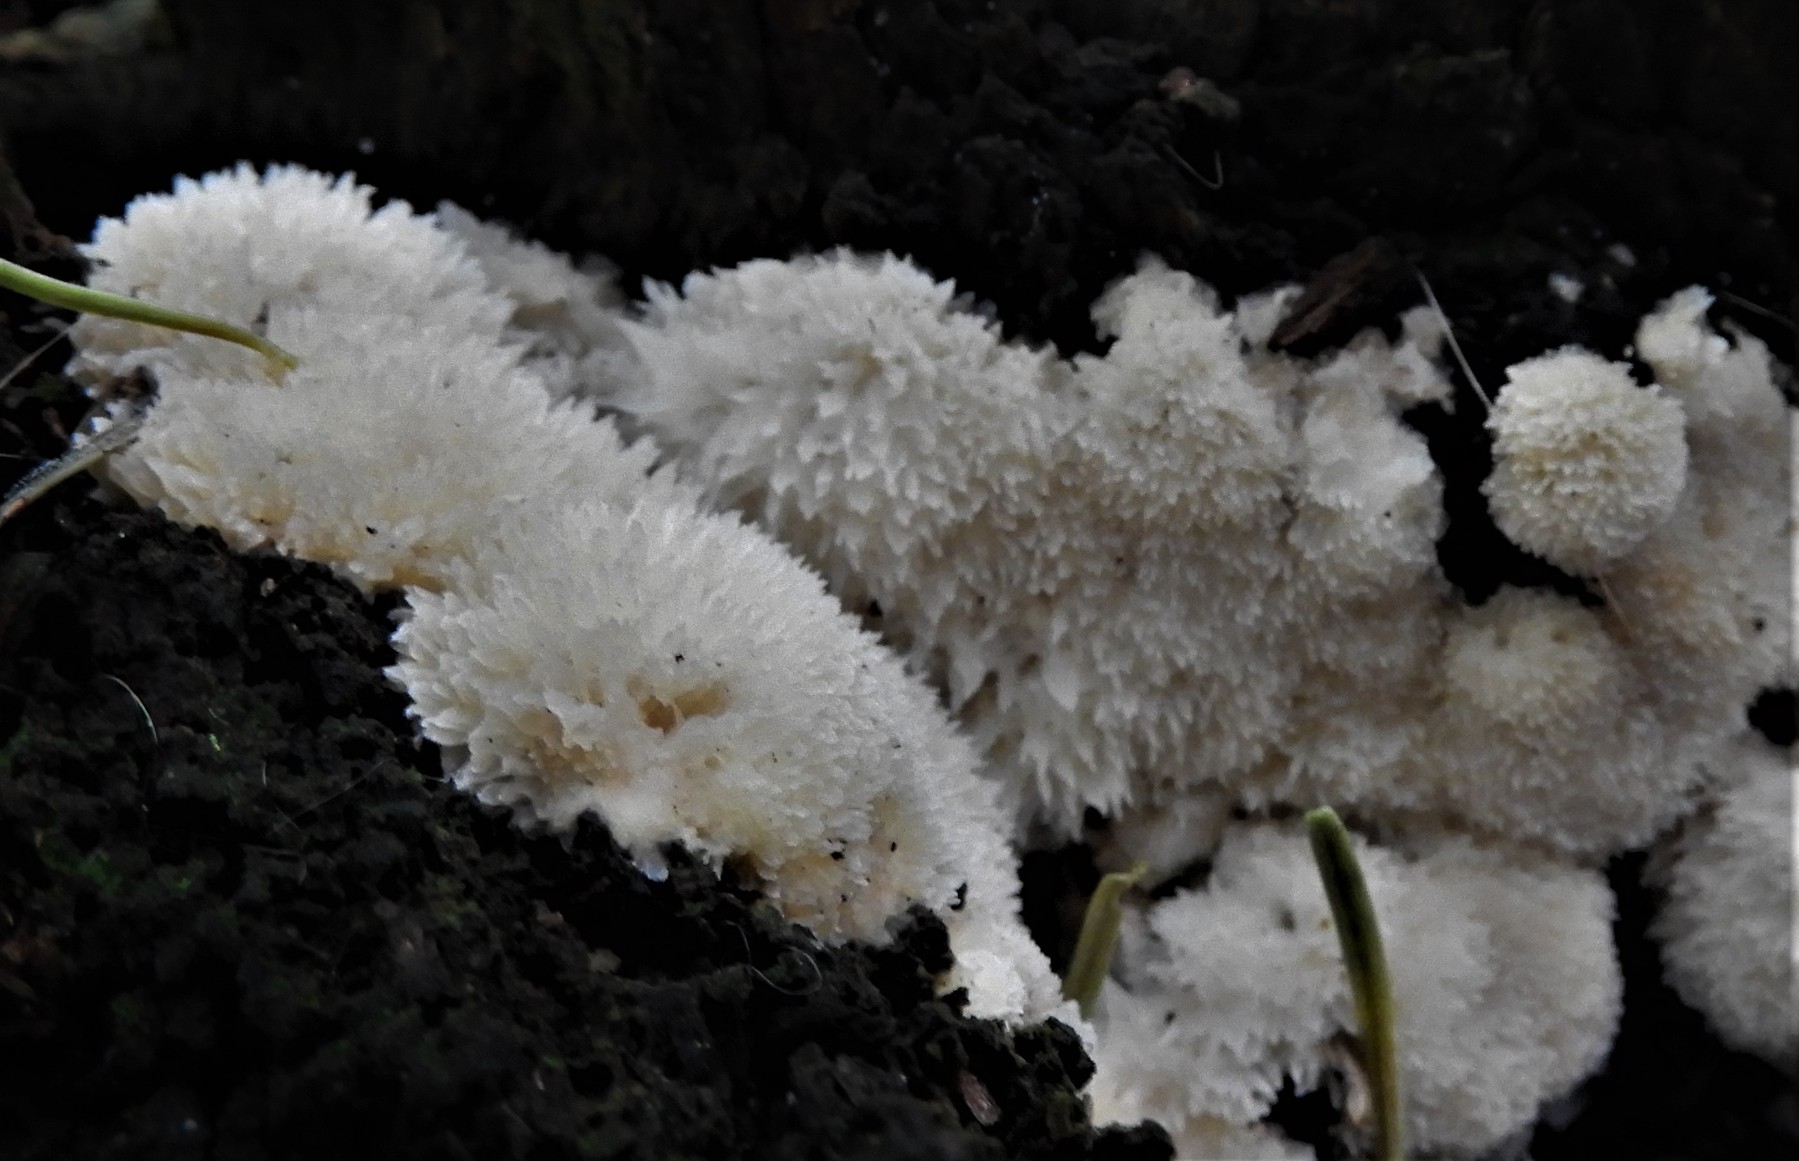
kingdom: Fungi
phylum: Basidiomycota
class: Agaricomycetes
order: Polyporales
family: Dacryobolaceae
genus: Postia
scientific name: Postia ptychogaster
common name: støvende kødporesvamp
